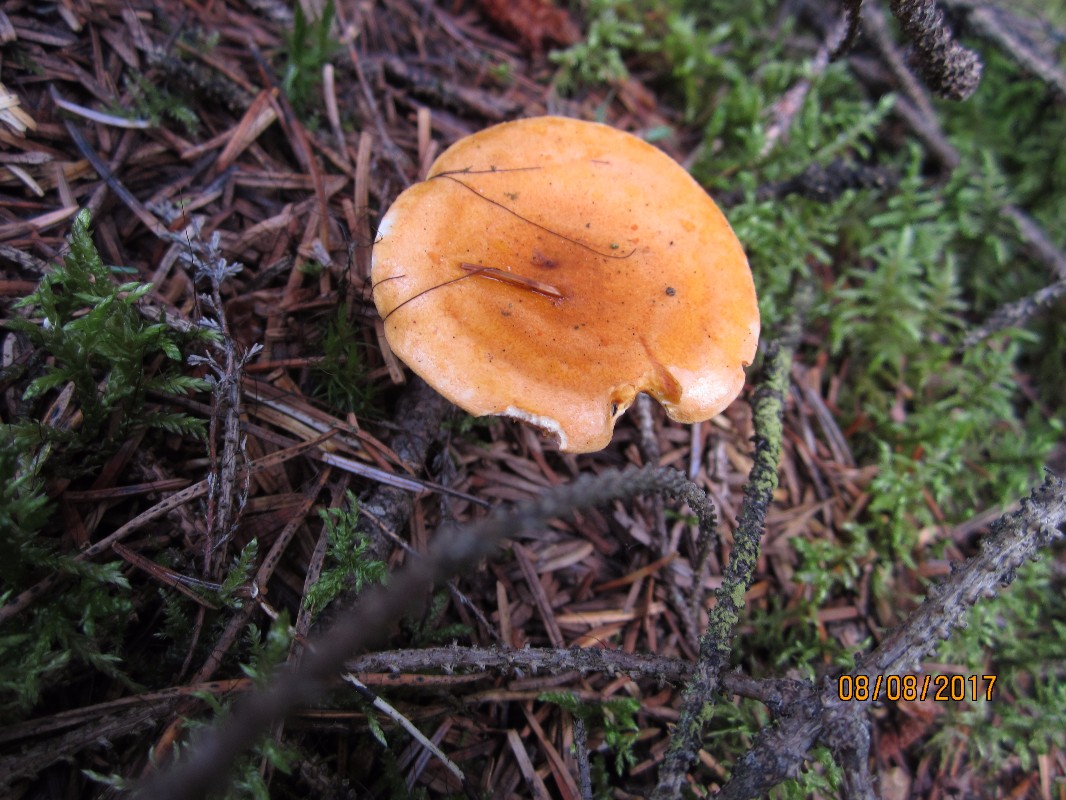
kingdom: Fungi
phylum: Basidiomycota
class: Agaricomycetes
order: Boletales
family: Hygrophoropsidaceae
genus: Hygrophoropsis
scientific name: Hygrophoropsis
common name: orangekantarel
